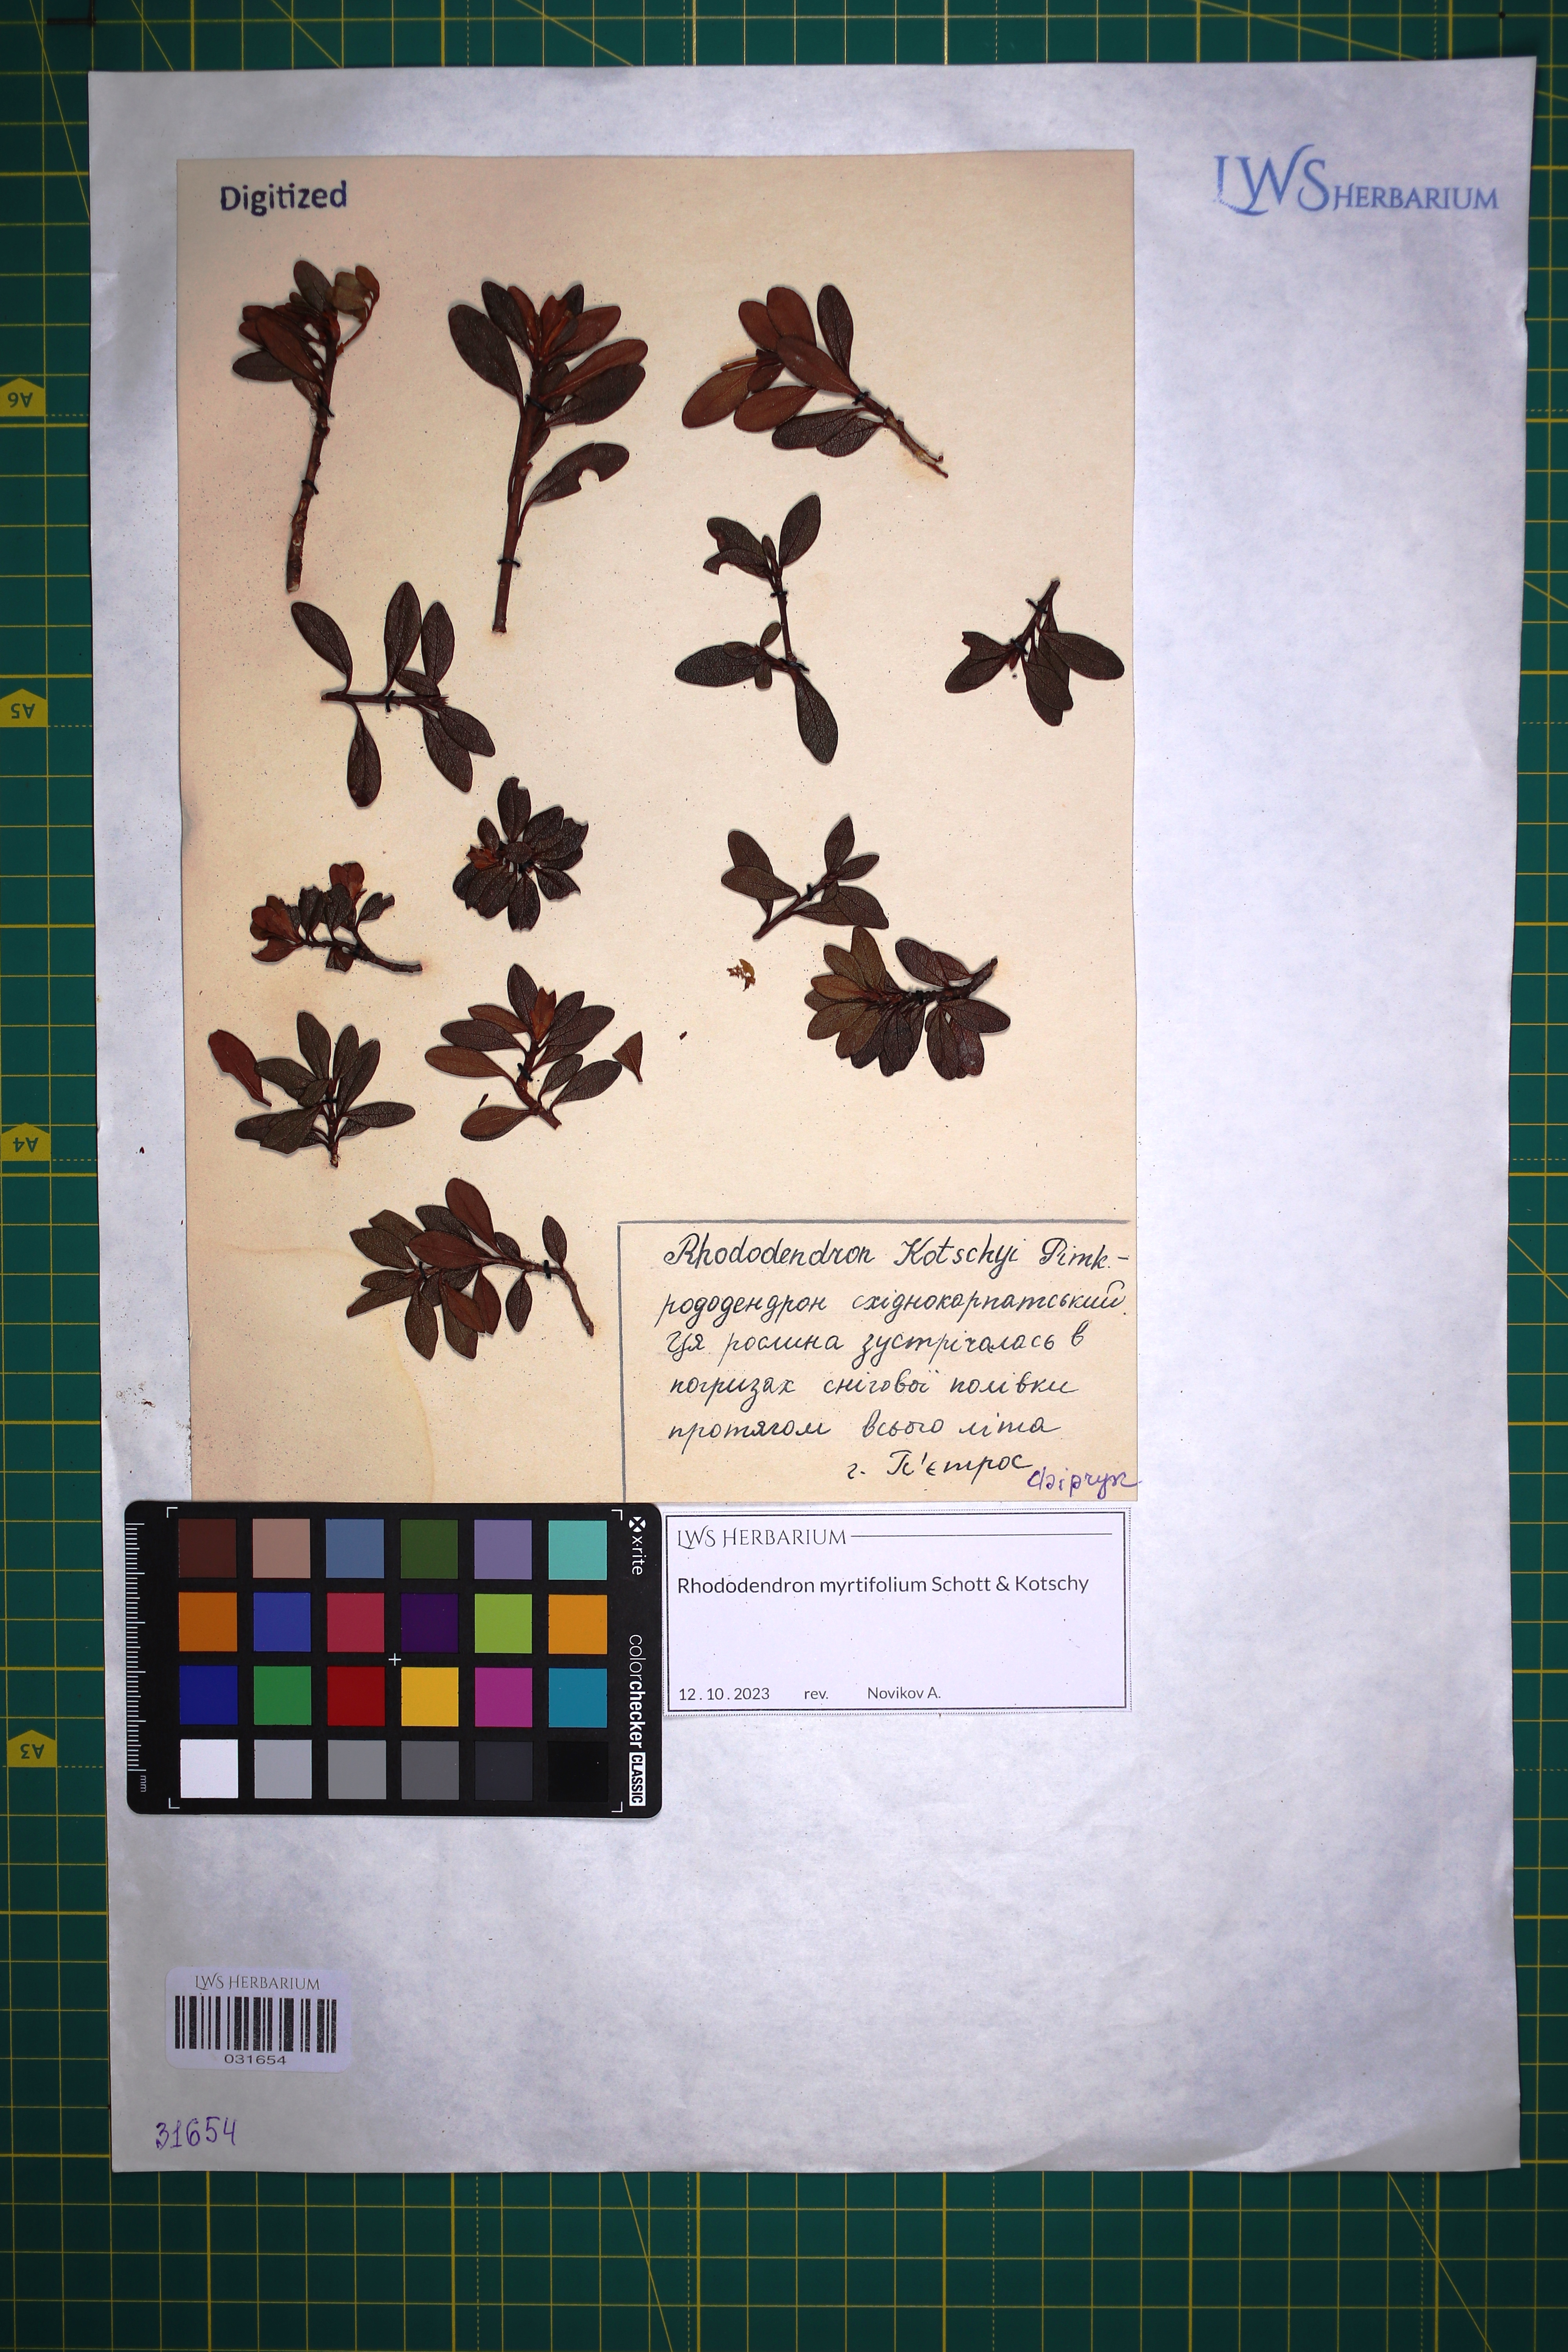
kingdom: Plantae
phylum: Tracheophyta
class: Magnoliopsida
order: Ericales
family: Ericaceae
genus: Rhododendron
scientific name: Rhododendron kotschyi
